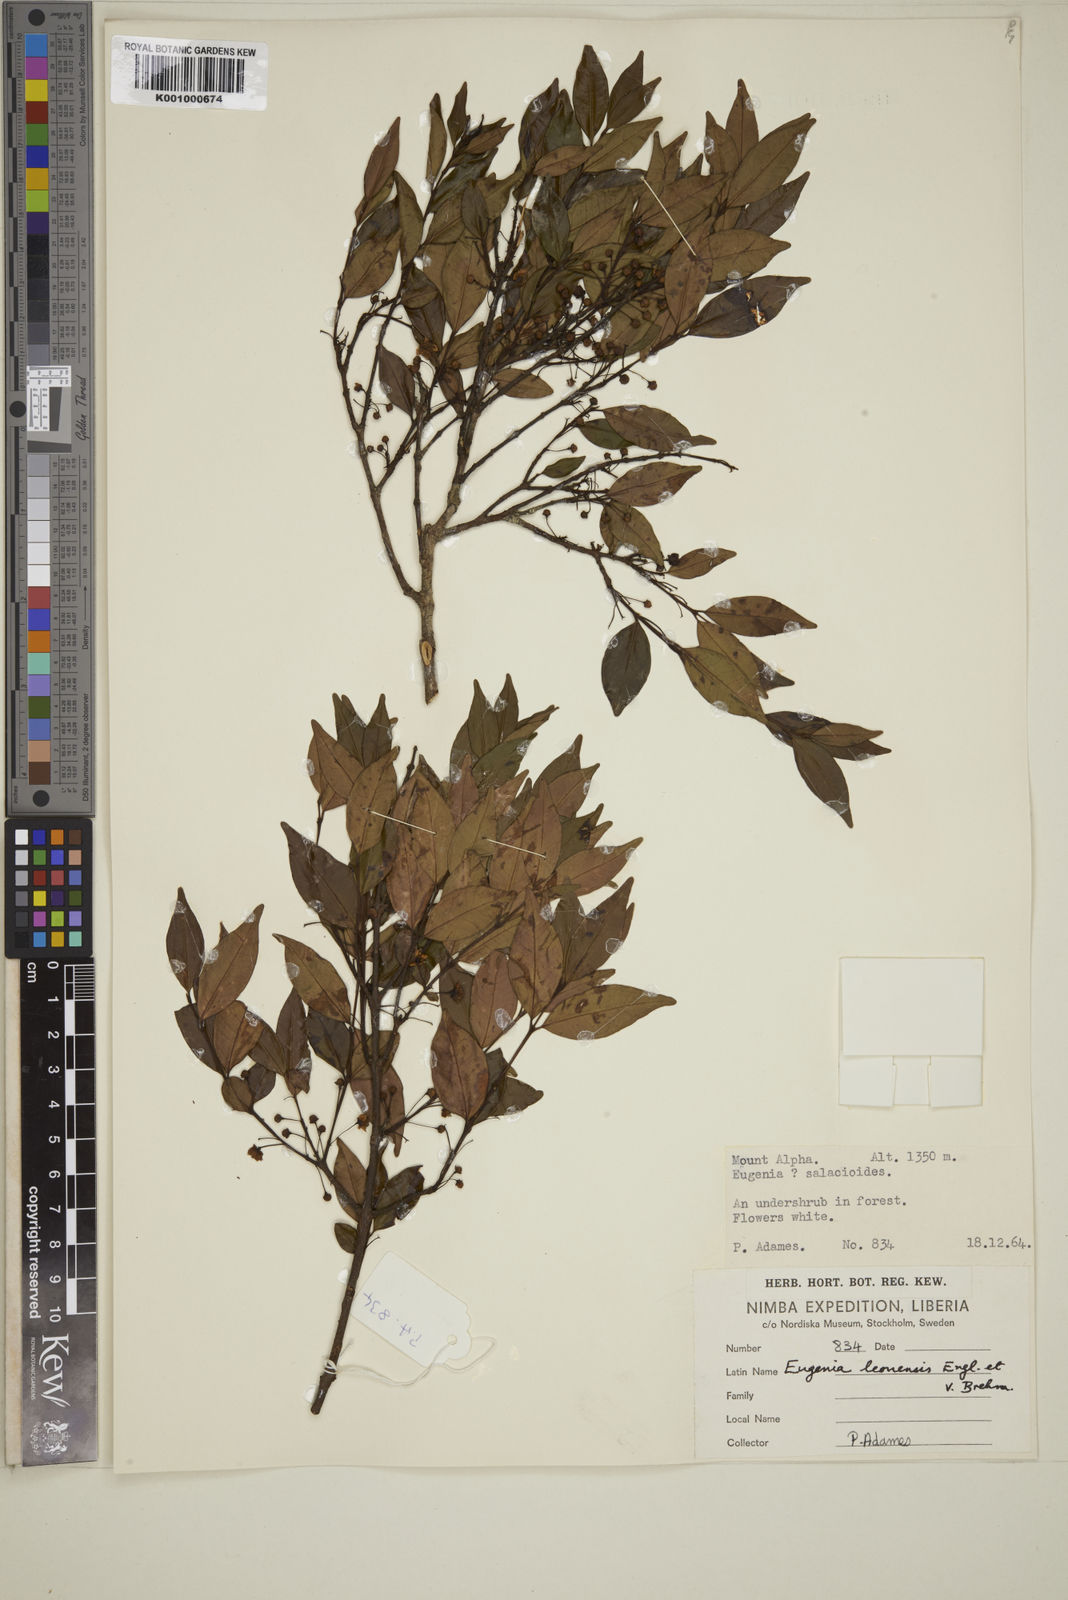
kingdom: Plantae
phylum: Tracheophyta
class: Magnoliopsida
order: Myrtales
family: Myrtaceae
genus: Eugenia
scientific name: Eugenia leonensis
